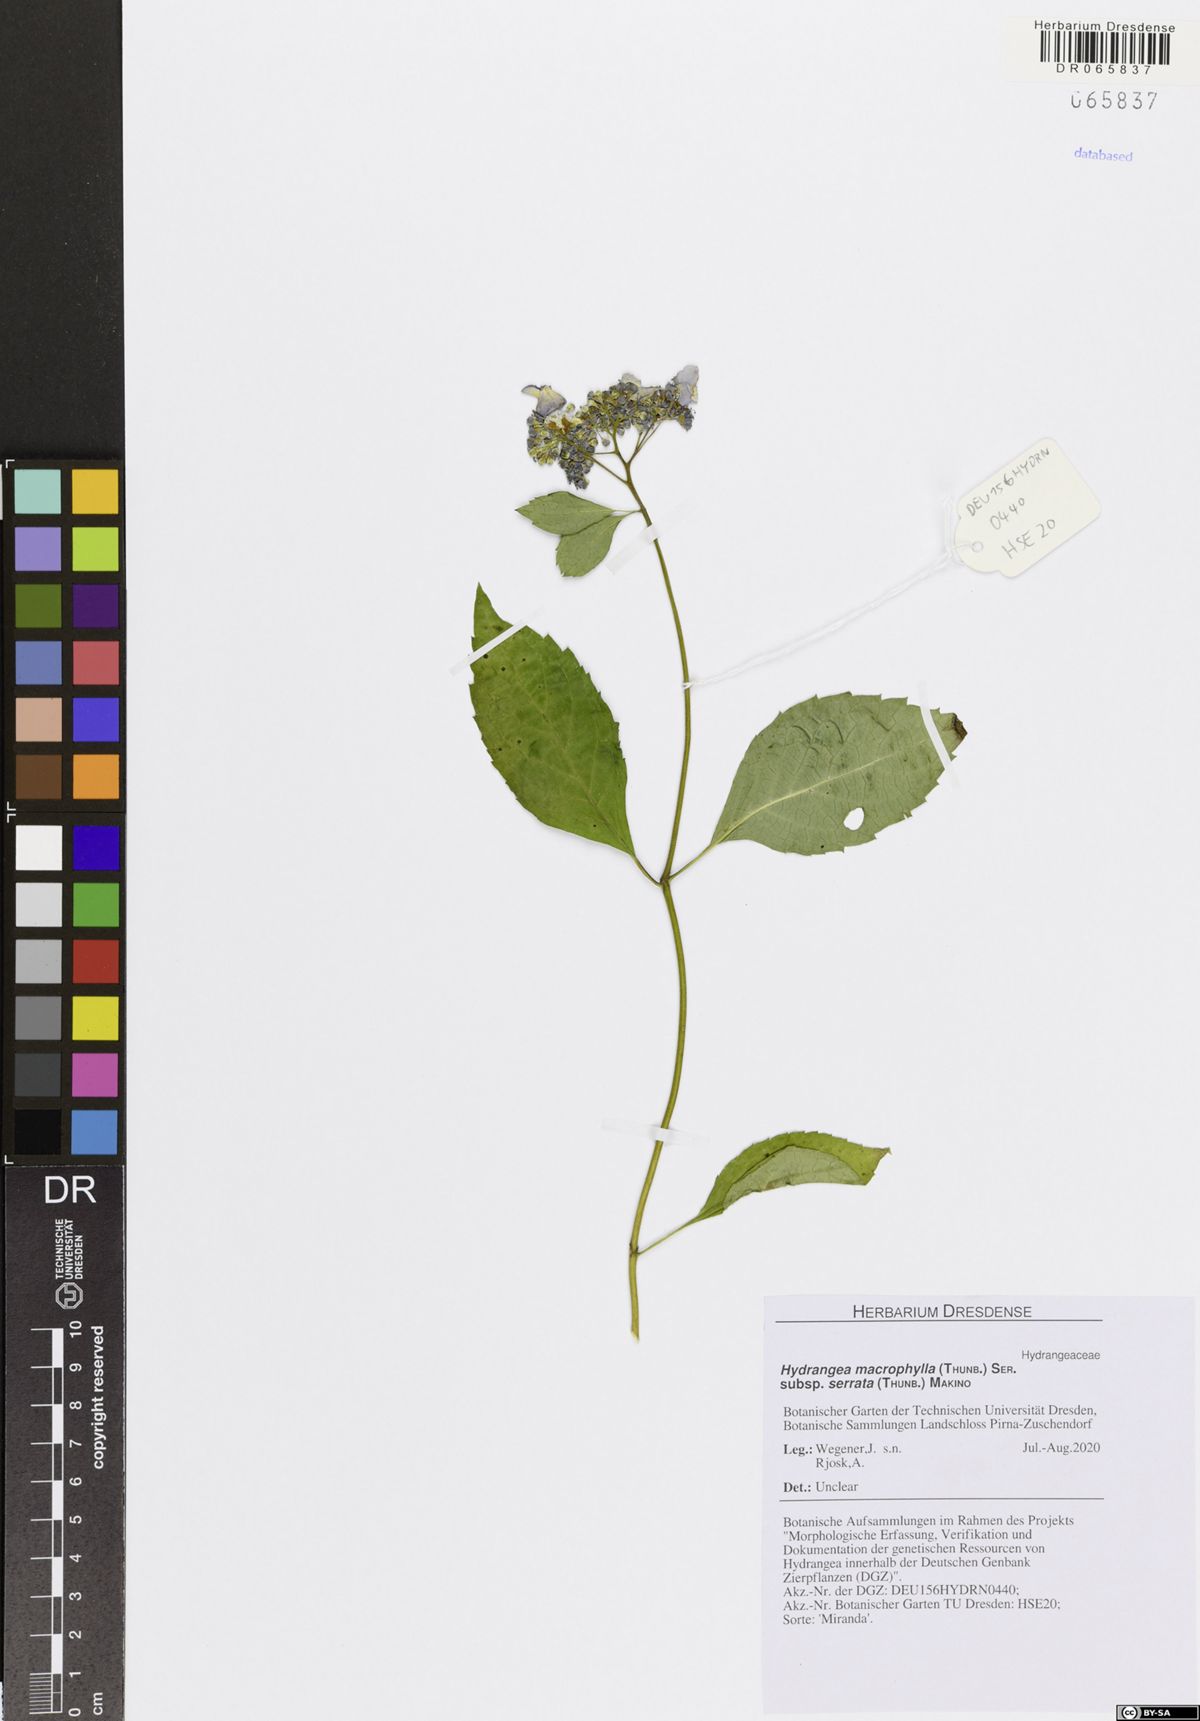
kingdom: Plantae
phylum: Tracheophyta
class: Magnoliopsida
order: Cornales
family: Hydrangeaceae
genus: Hydrangea
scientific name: Hydrangea serrata
